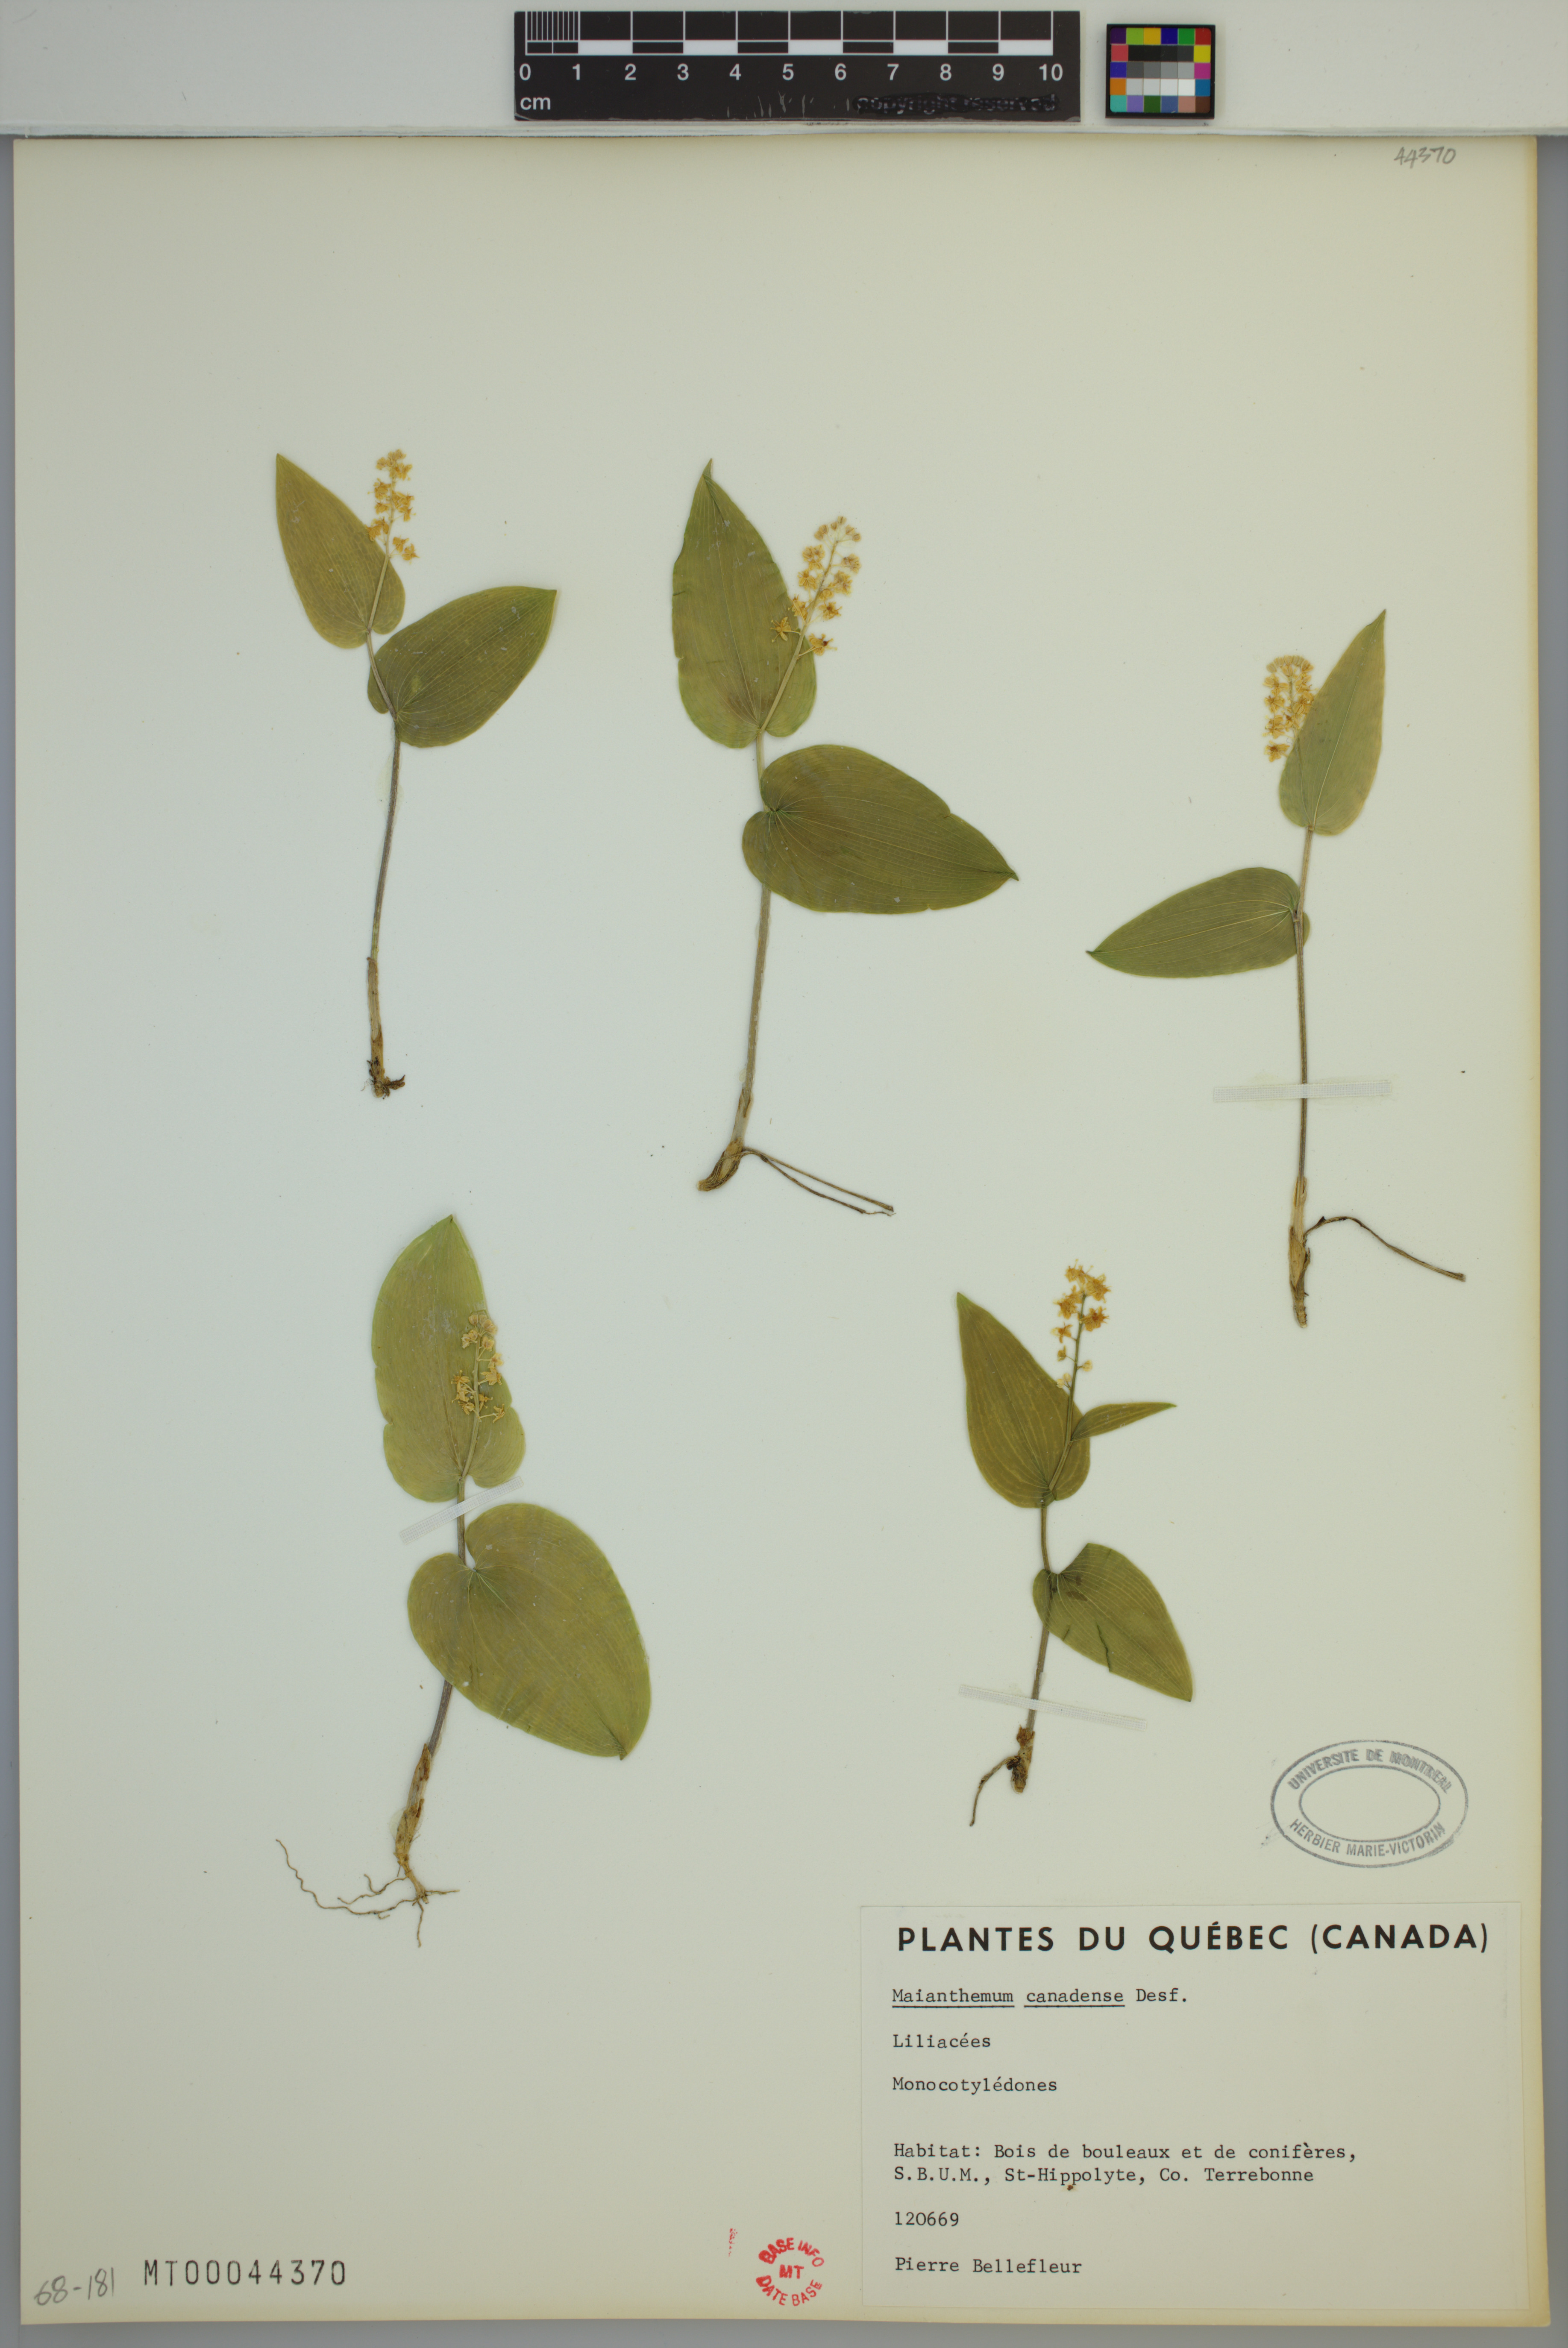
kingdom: Plantae
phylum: Tracheophyta
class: Liliopsida
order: Asparagales
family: Asparagaceae
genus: Maianthemum
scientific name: Maianthemum canadense
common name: False lily-of-the-valley
